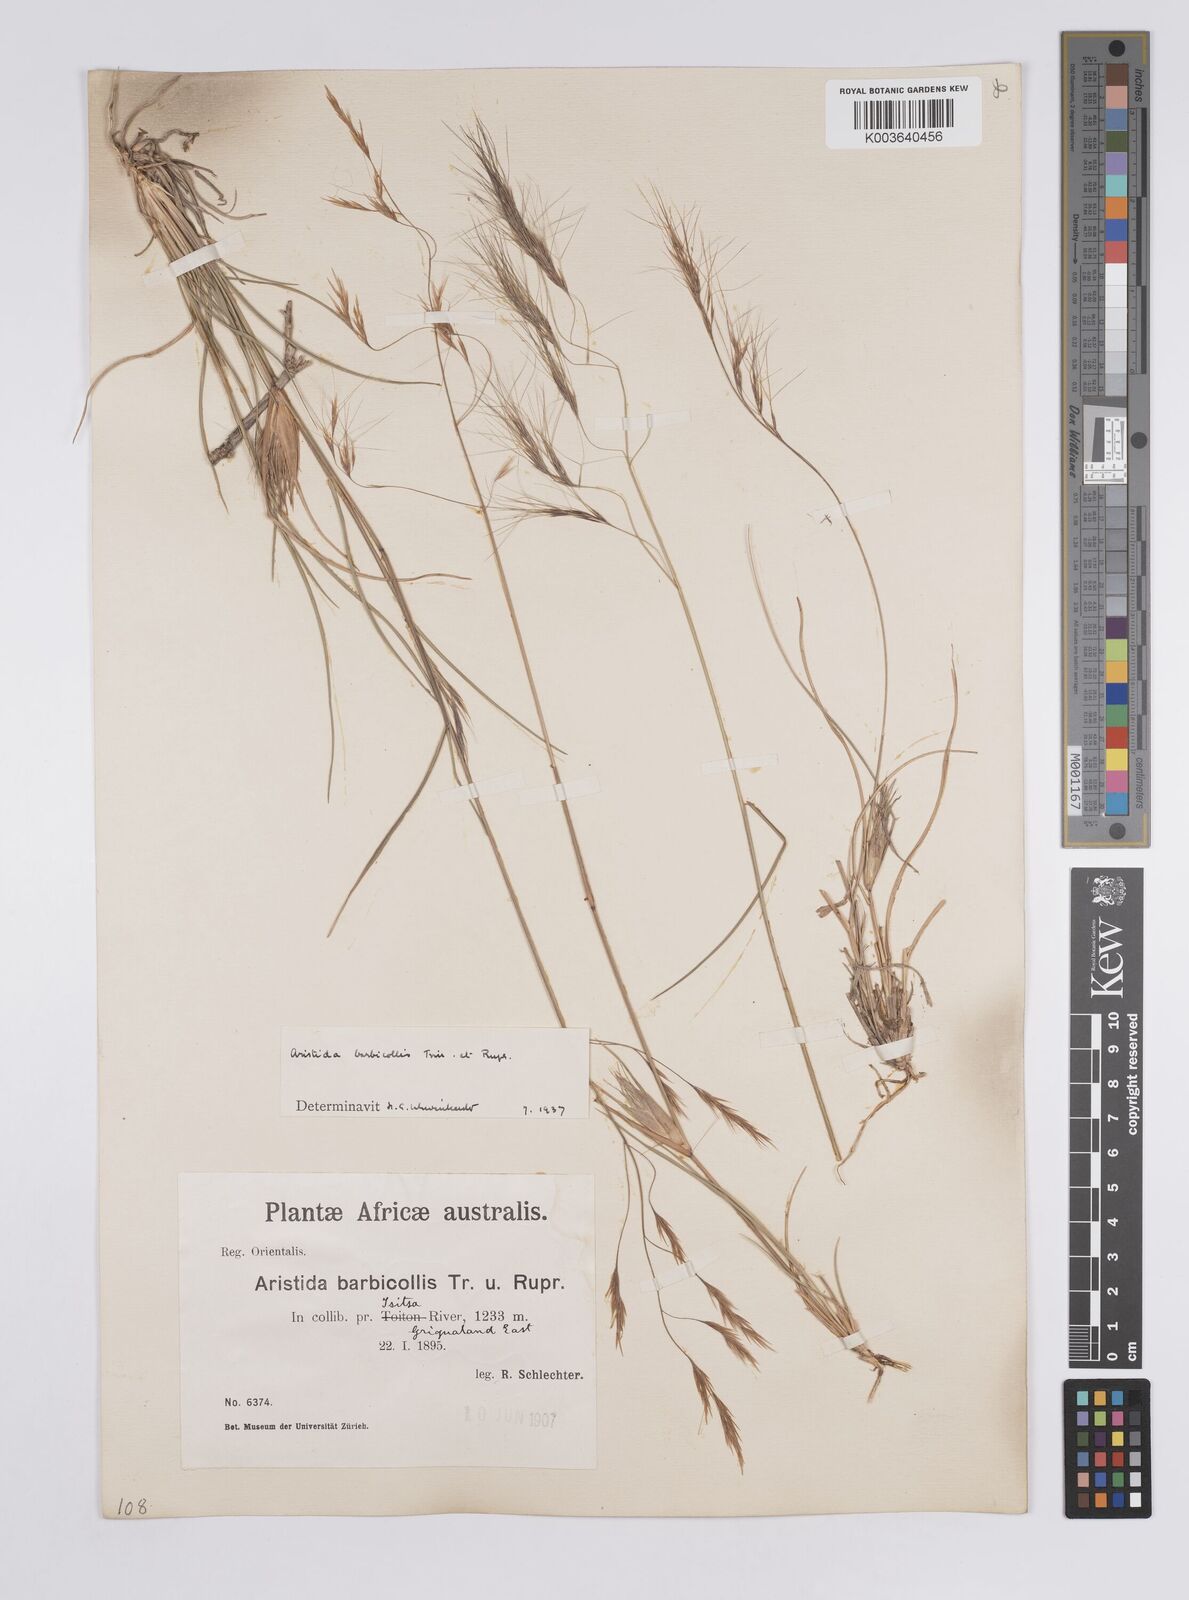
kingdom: Plantae
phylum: Tracheophyta
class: Liliopsida
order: Poales
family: Poaceae
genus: Aristida
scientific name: Aristida barbicollis
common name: Spreading prickle grass
